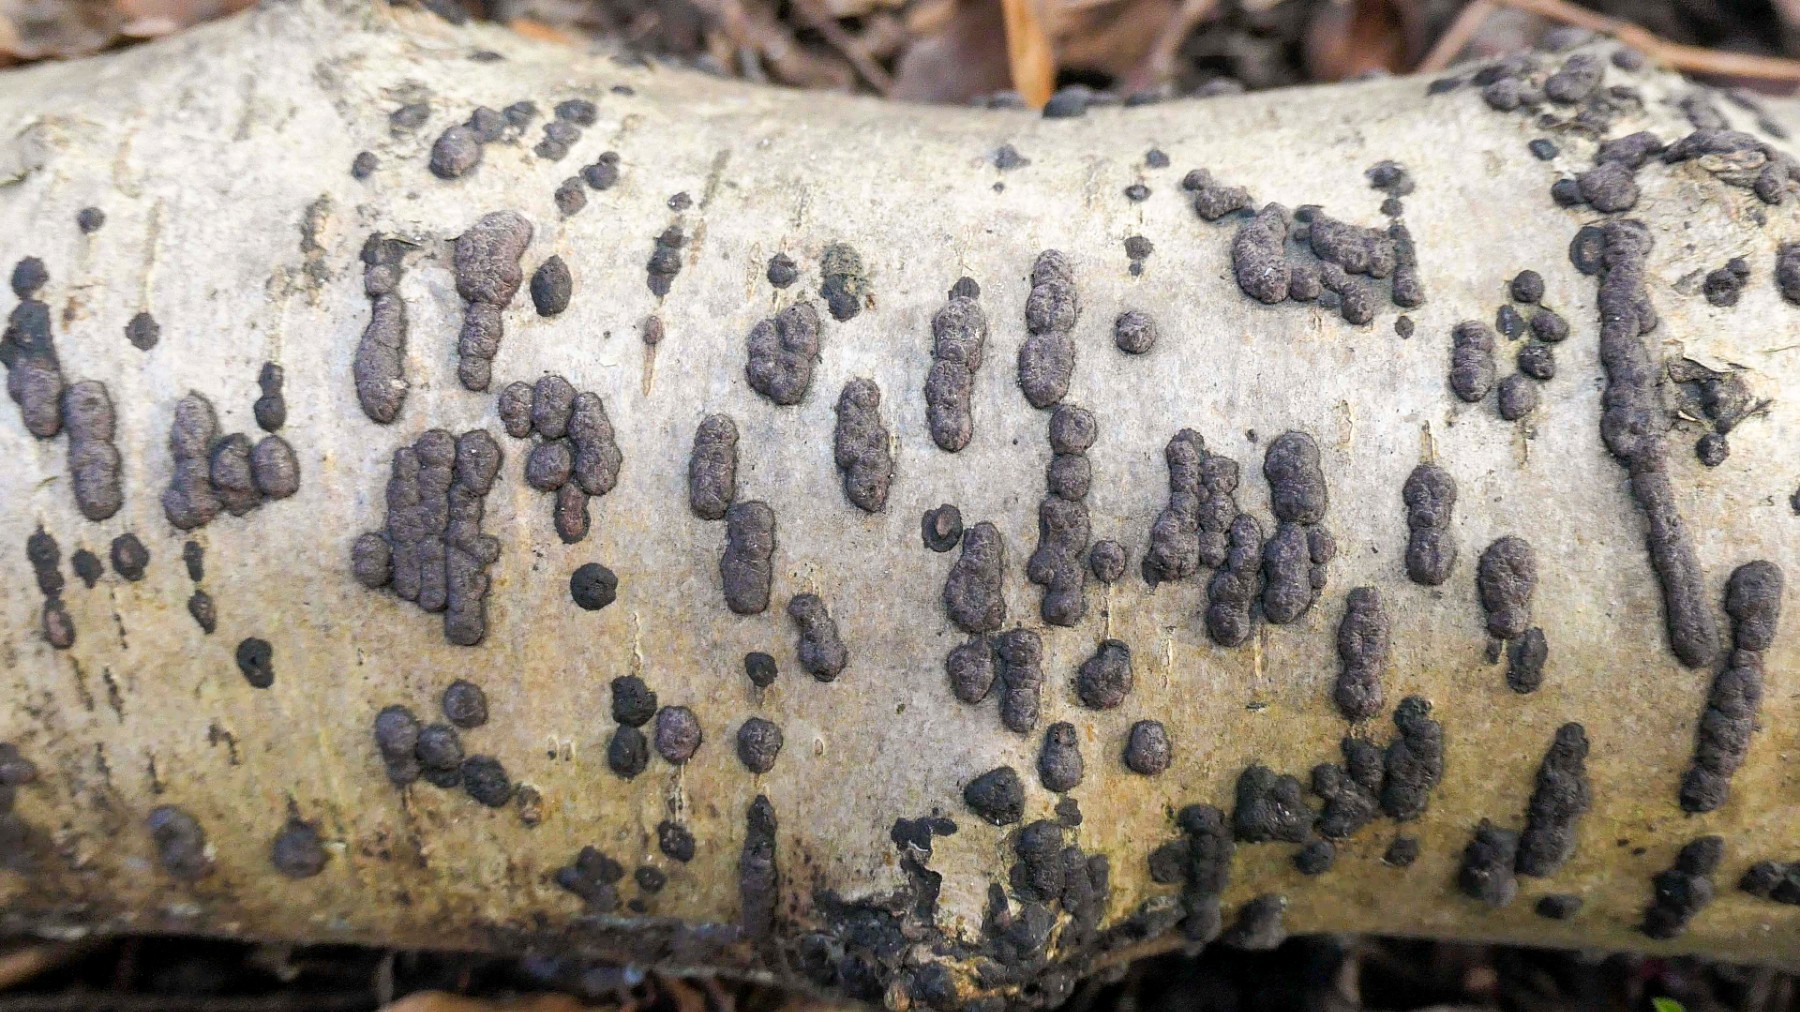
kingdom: Fungi
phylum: Ascomycota
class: Sordariomycetes
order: Xylariales
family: Hypoxylaceae
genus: Hypoxylon
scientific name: Hypoxylon fuscum
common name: kegleformet kulbær
